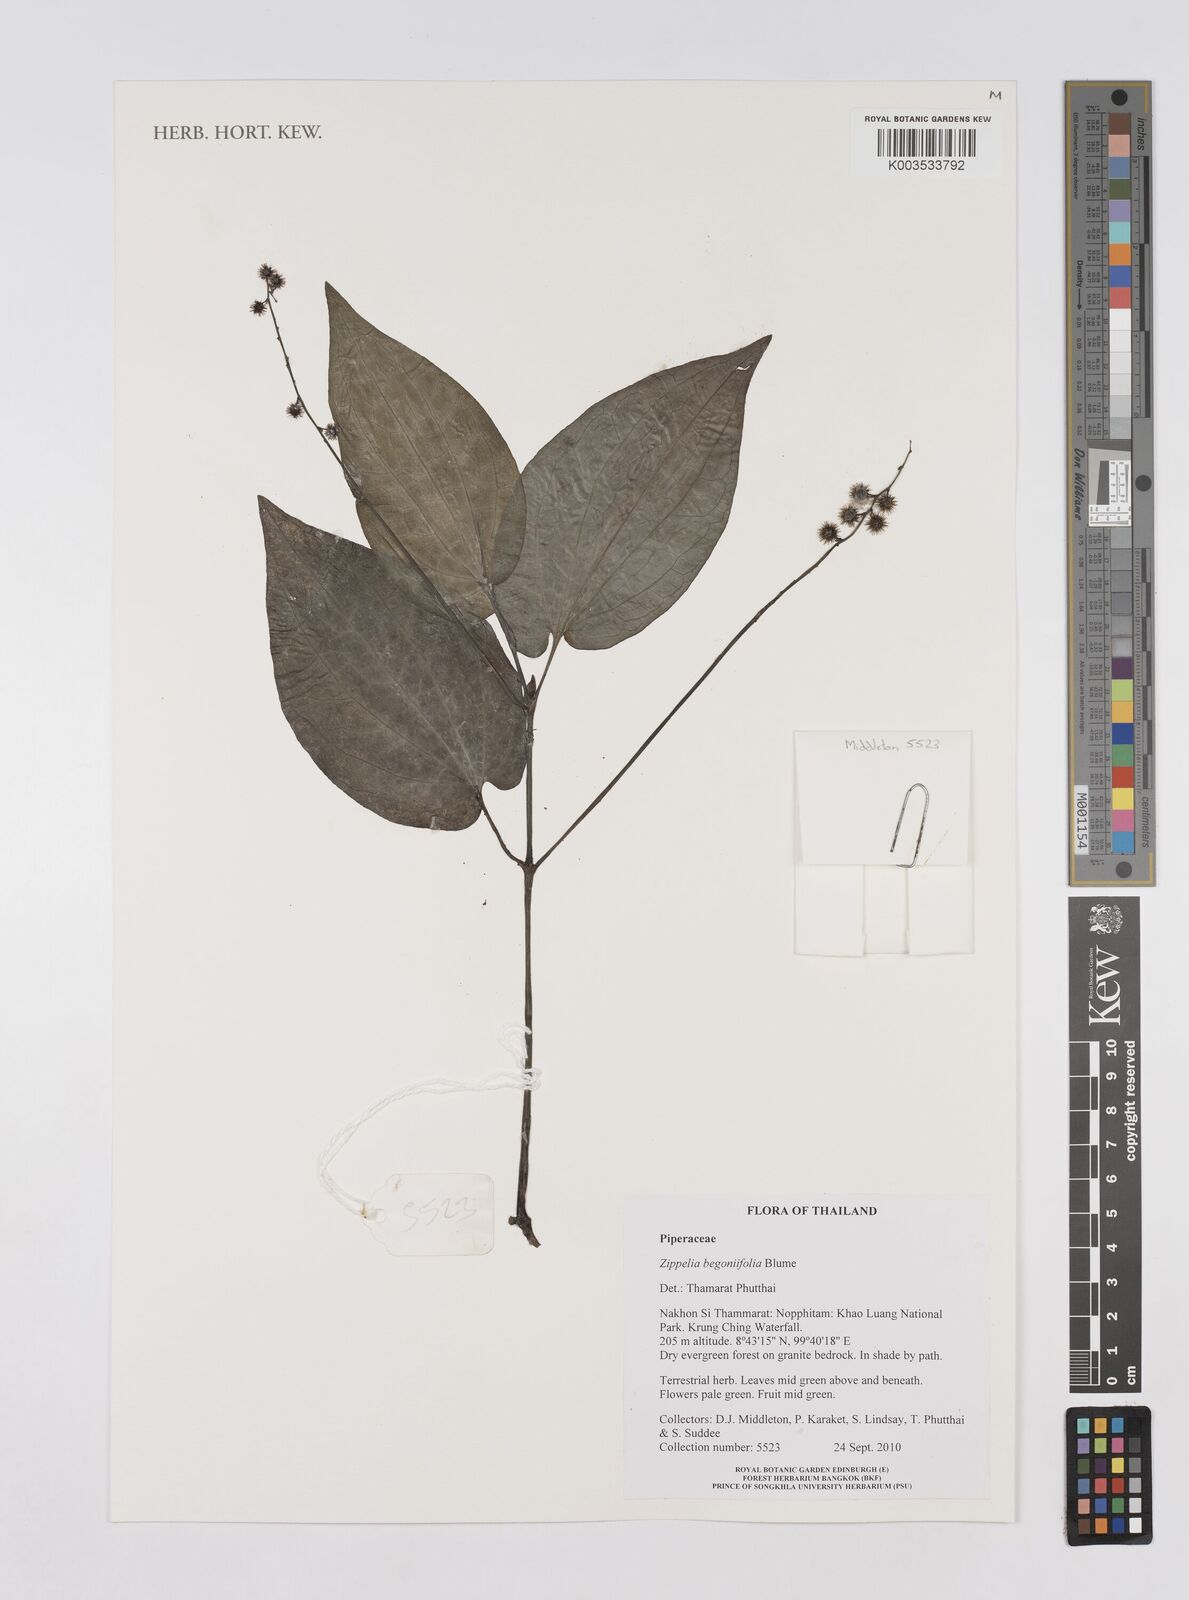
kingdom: Plantae
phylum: Tracheophyta
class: Magnoliopsida
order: Piperales
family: Piperaceae
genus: Piper
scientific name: Piper
